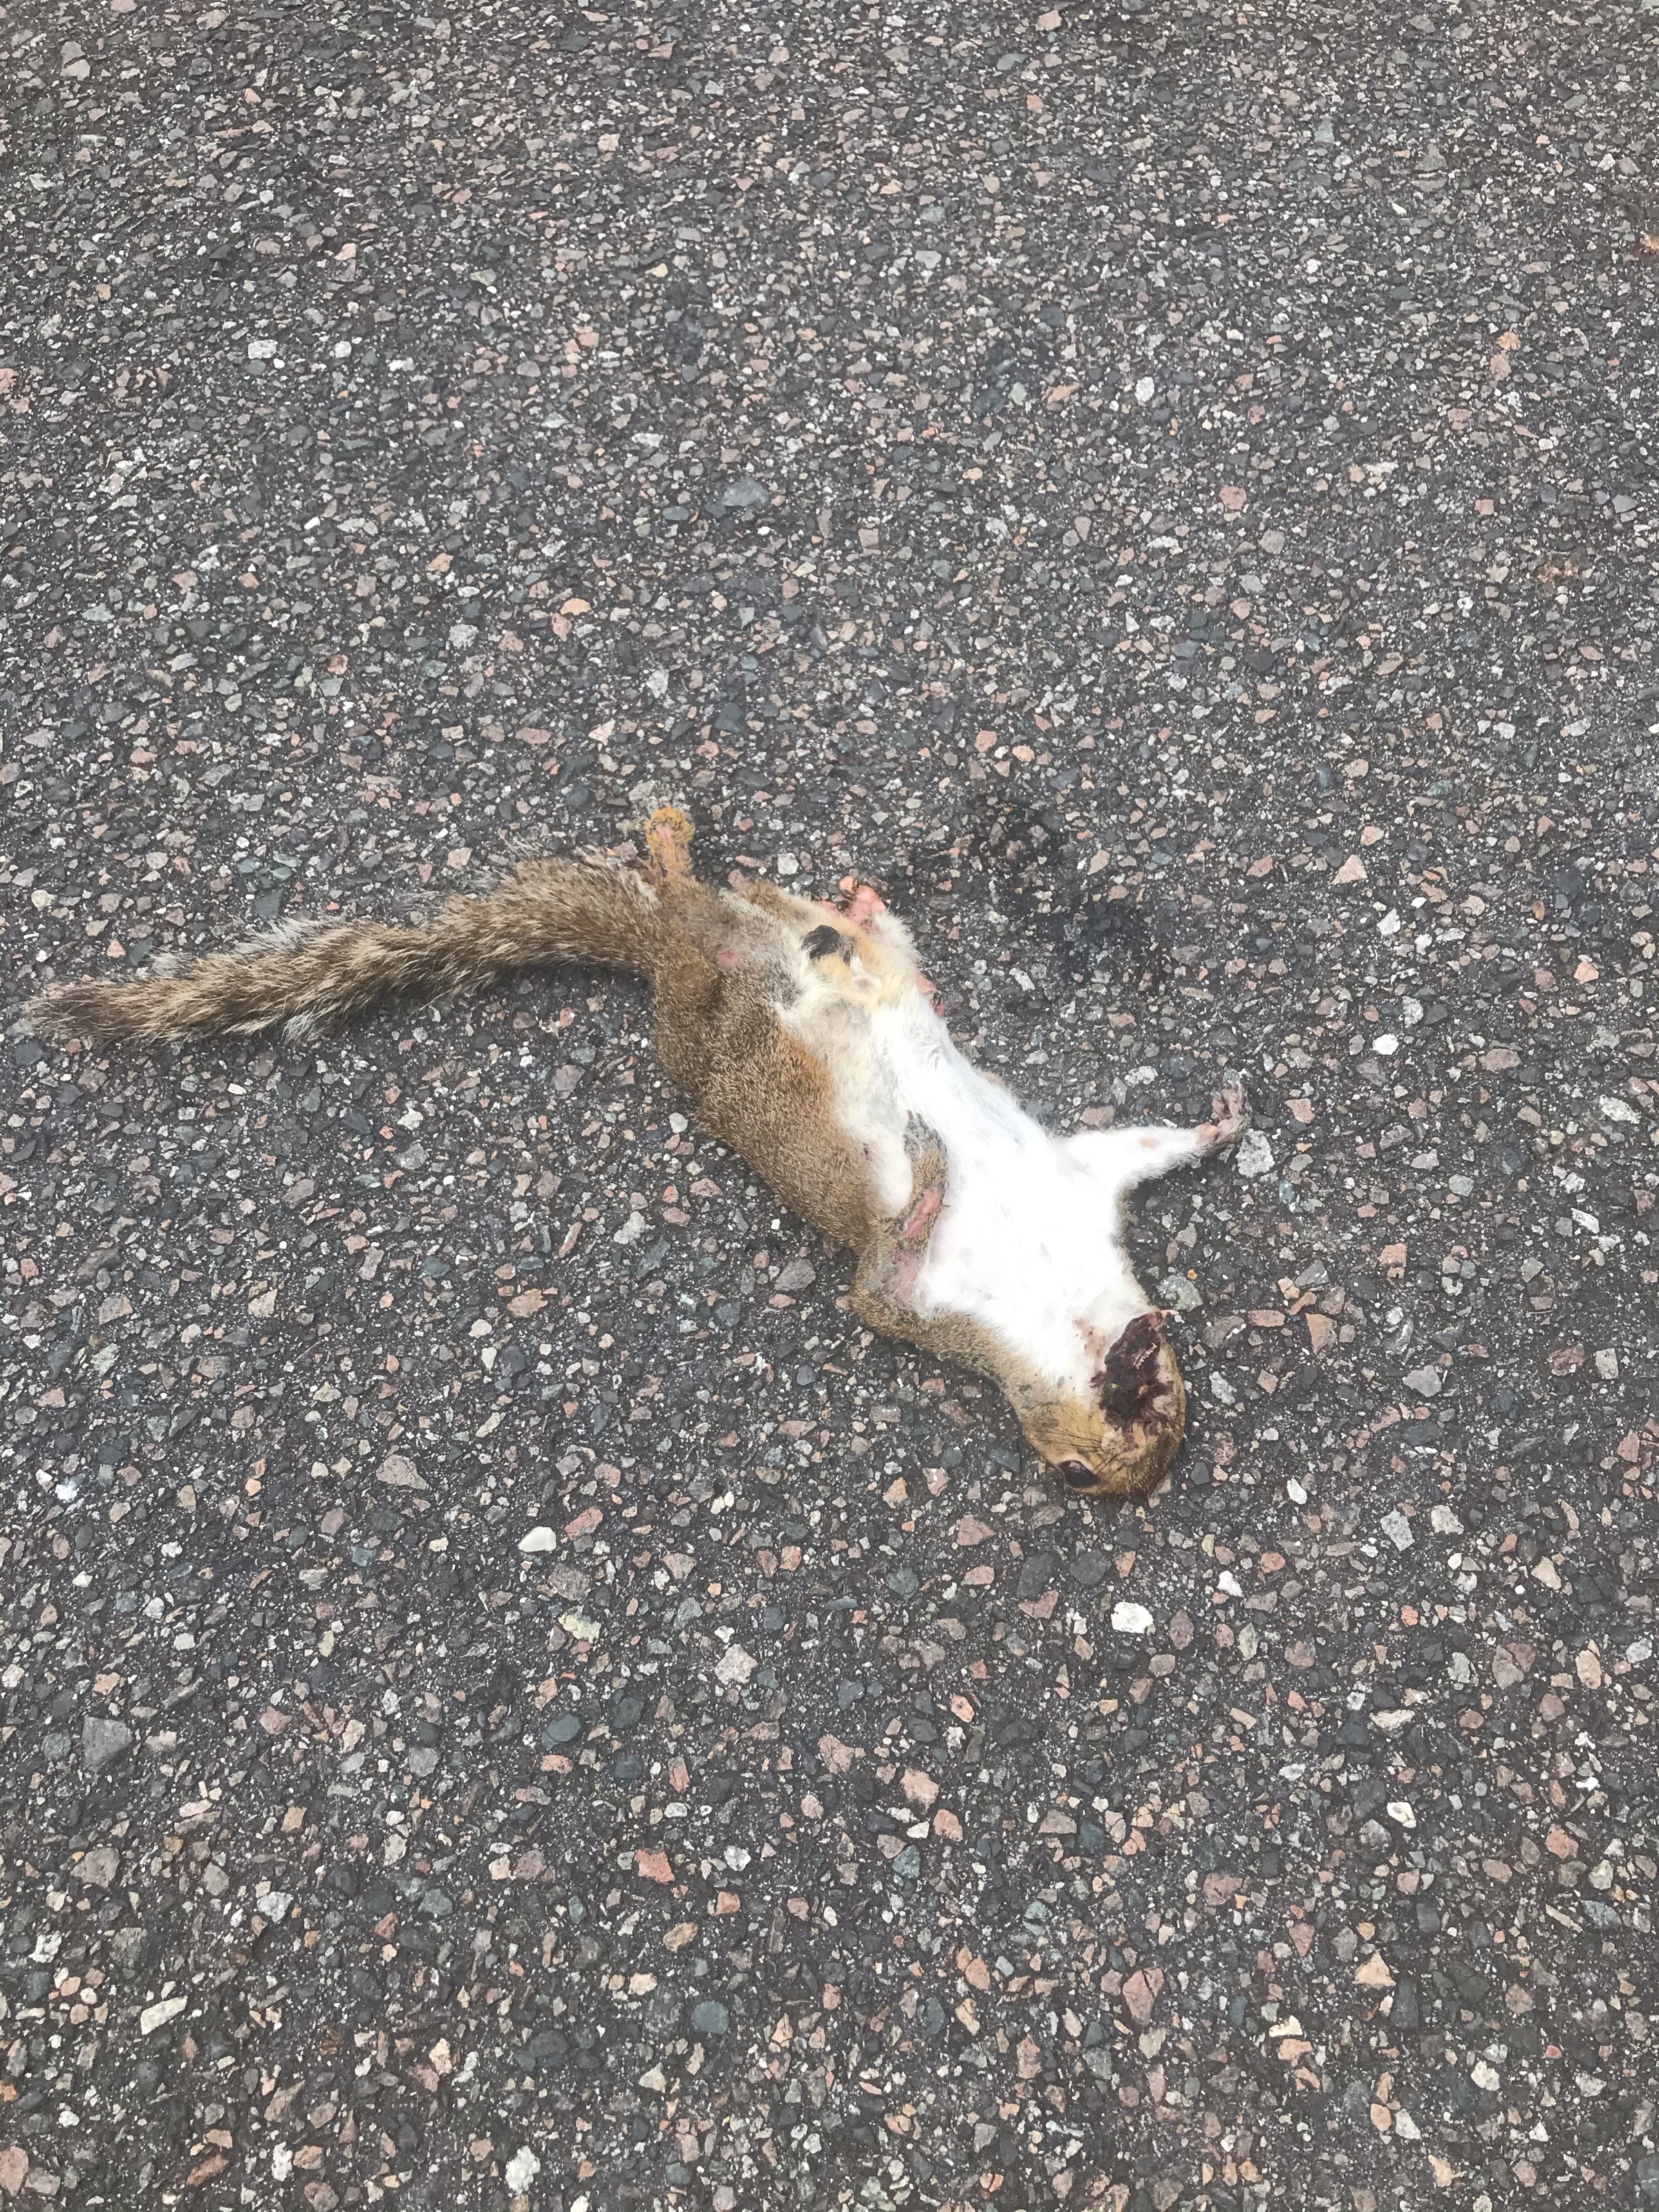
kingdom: Animalia
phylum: Chordata
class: Mammalia
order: Rodentia
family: Sciuridae
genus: Sciurus
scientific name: Sciurus carolinensis
